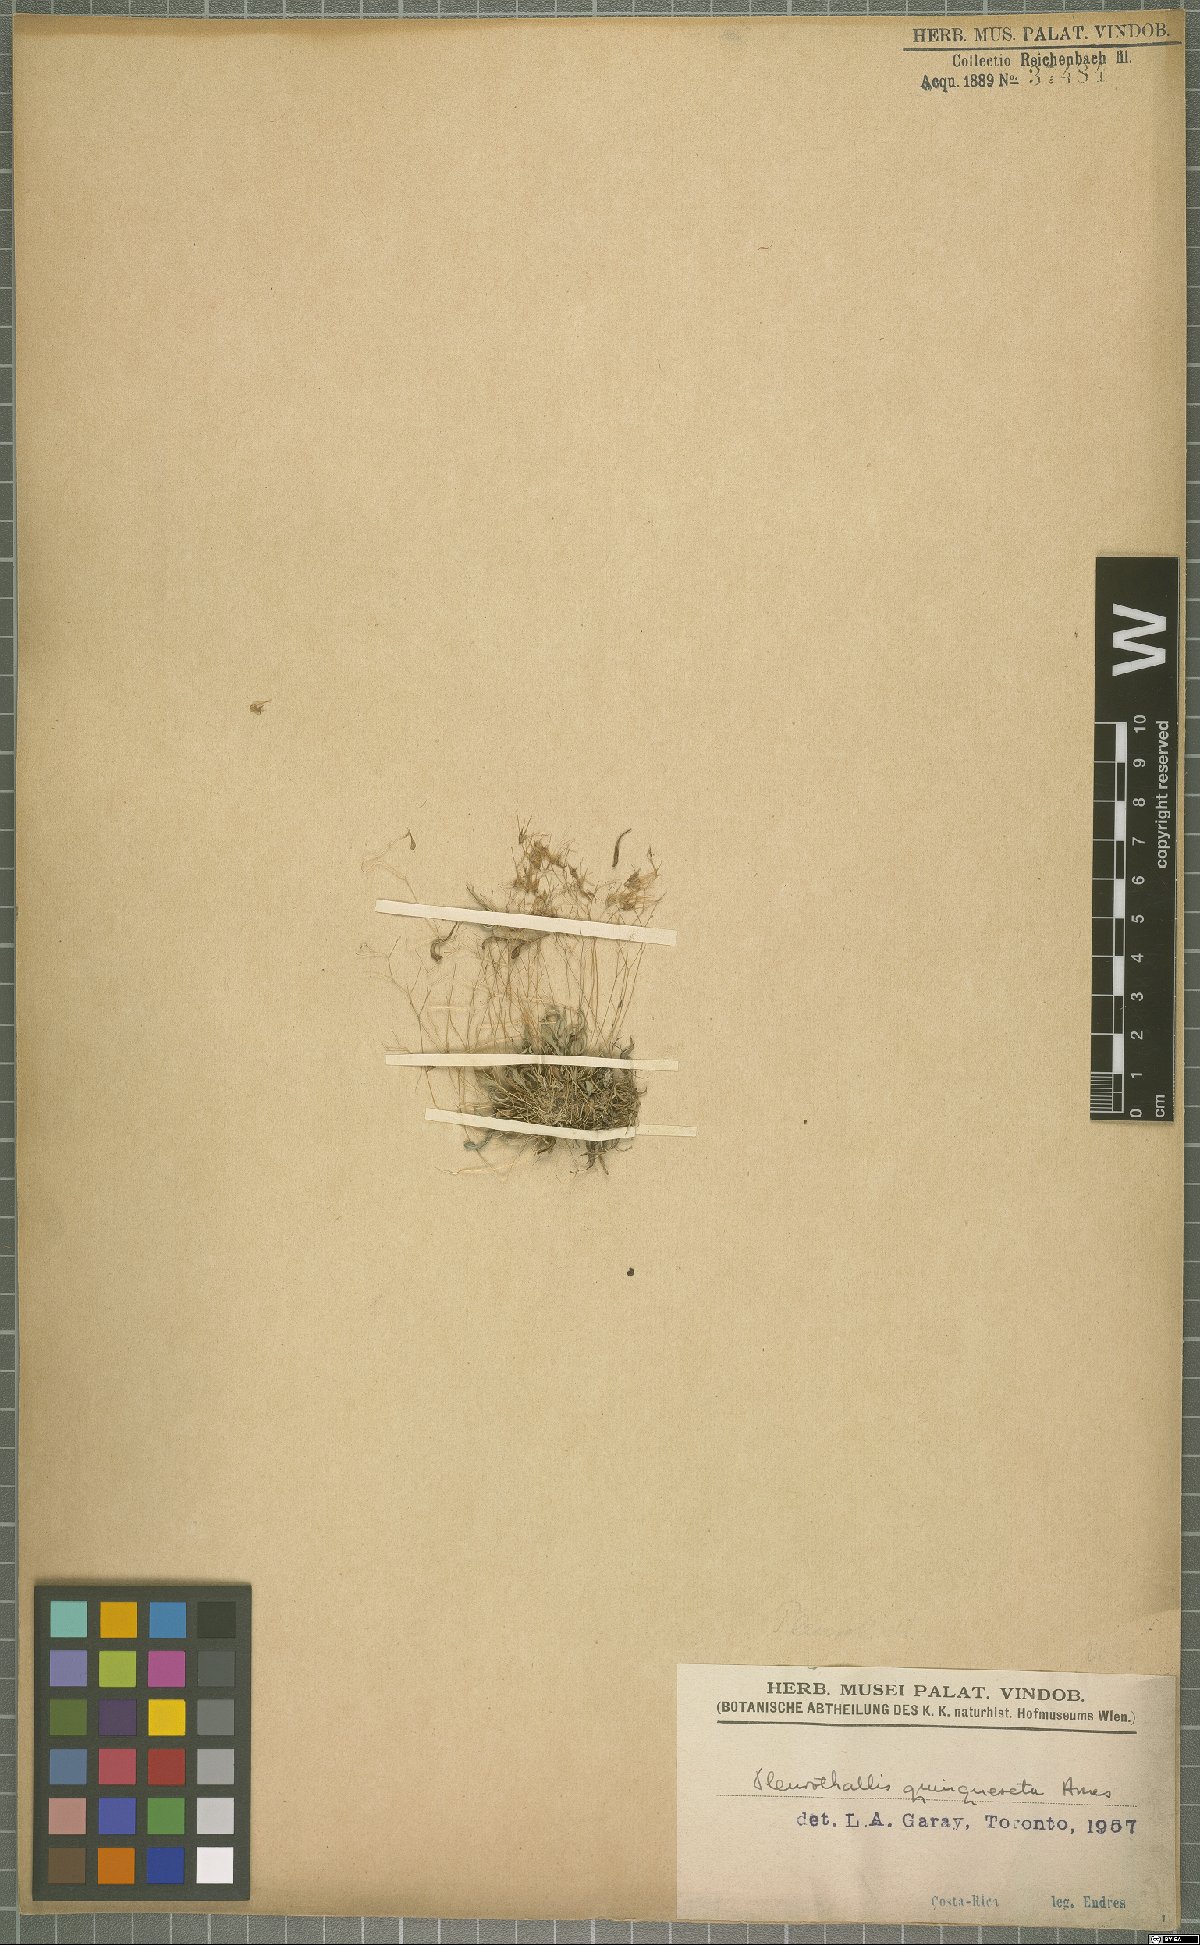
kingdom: Plantae
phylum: Tracheophyta
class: Liliopsida
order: Asparagales
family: Orchidaceae
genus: Muscarella
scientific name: Muscarella quinqueseta
